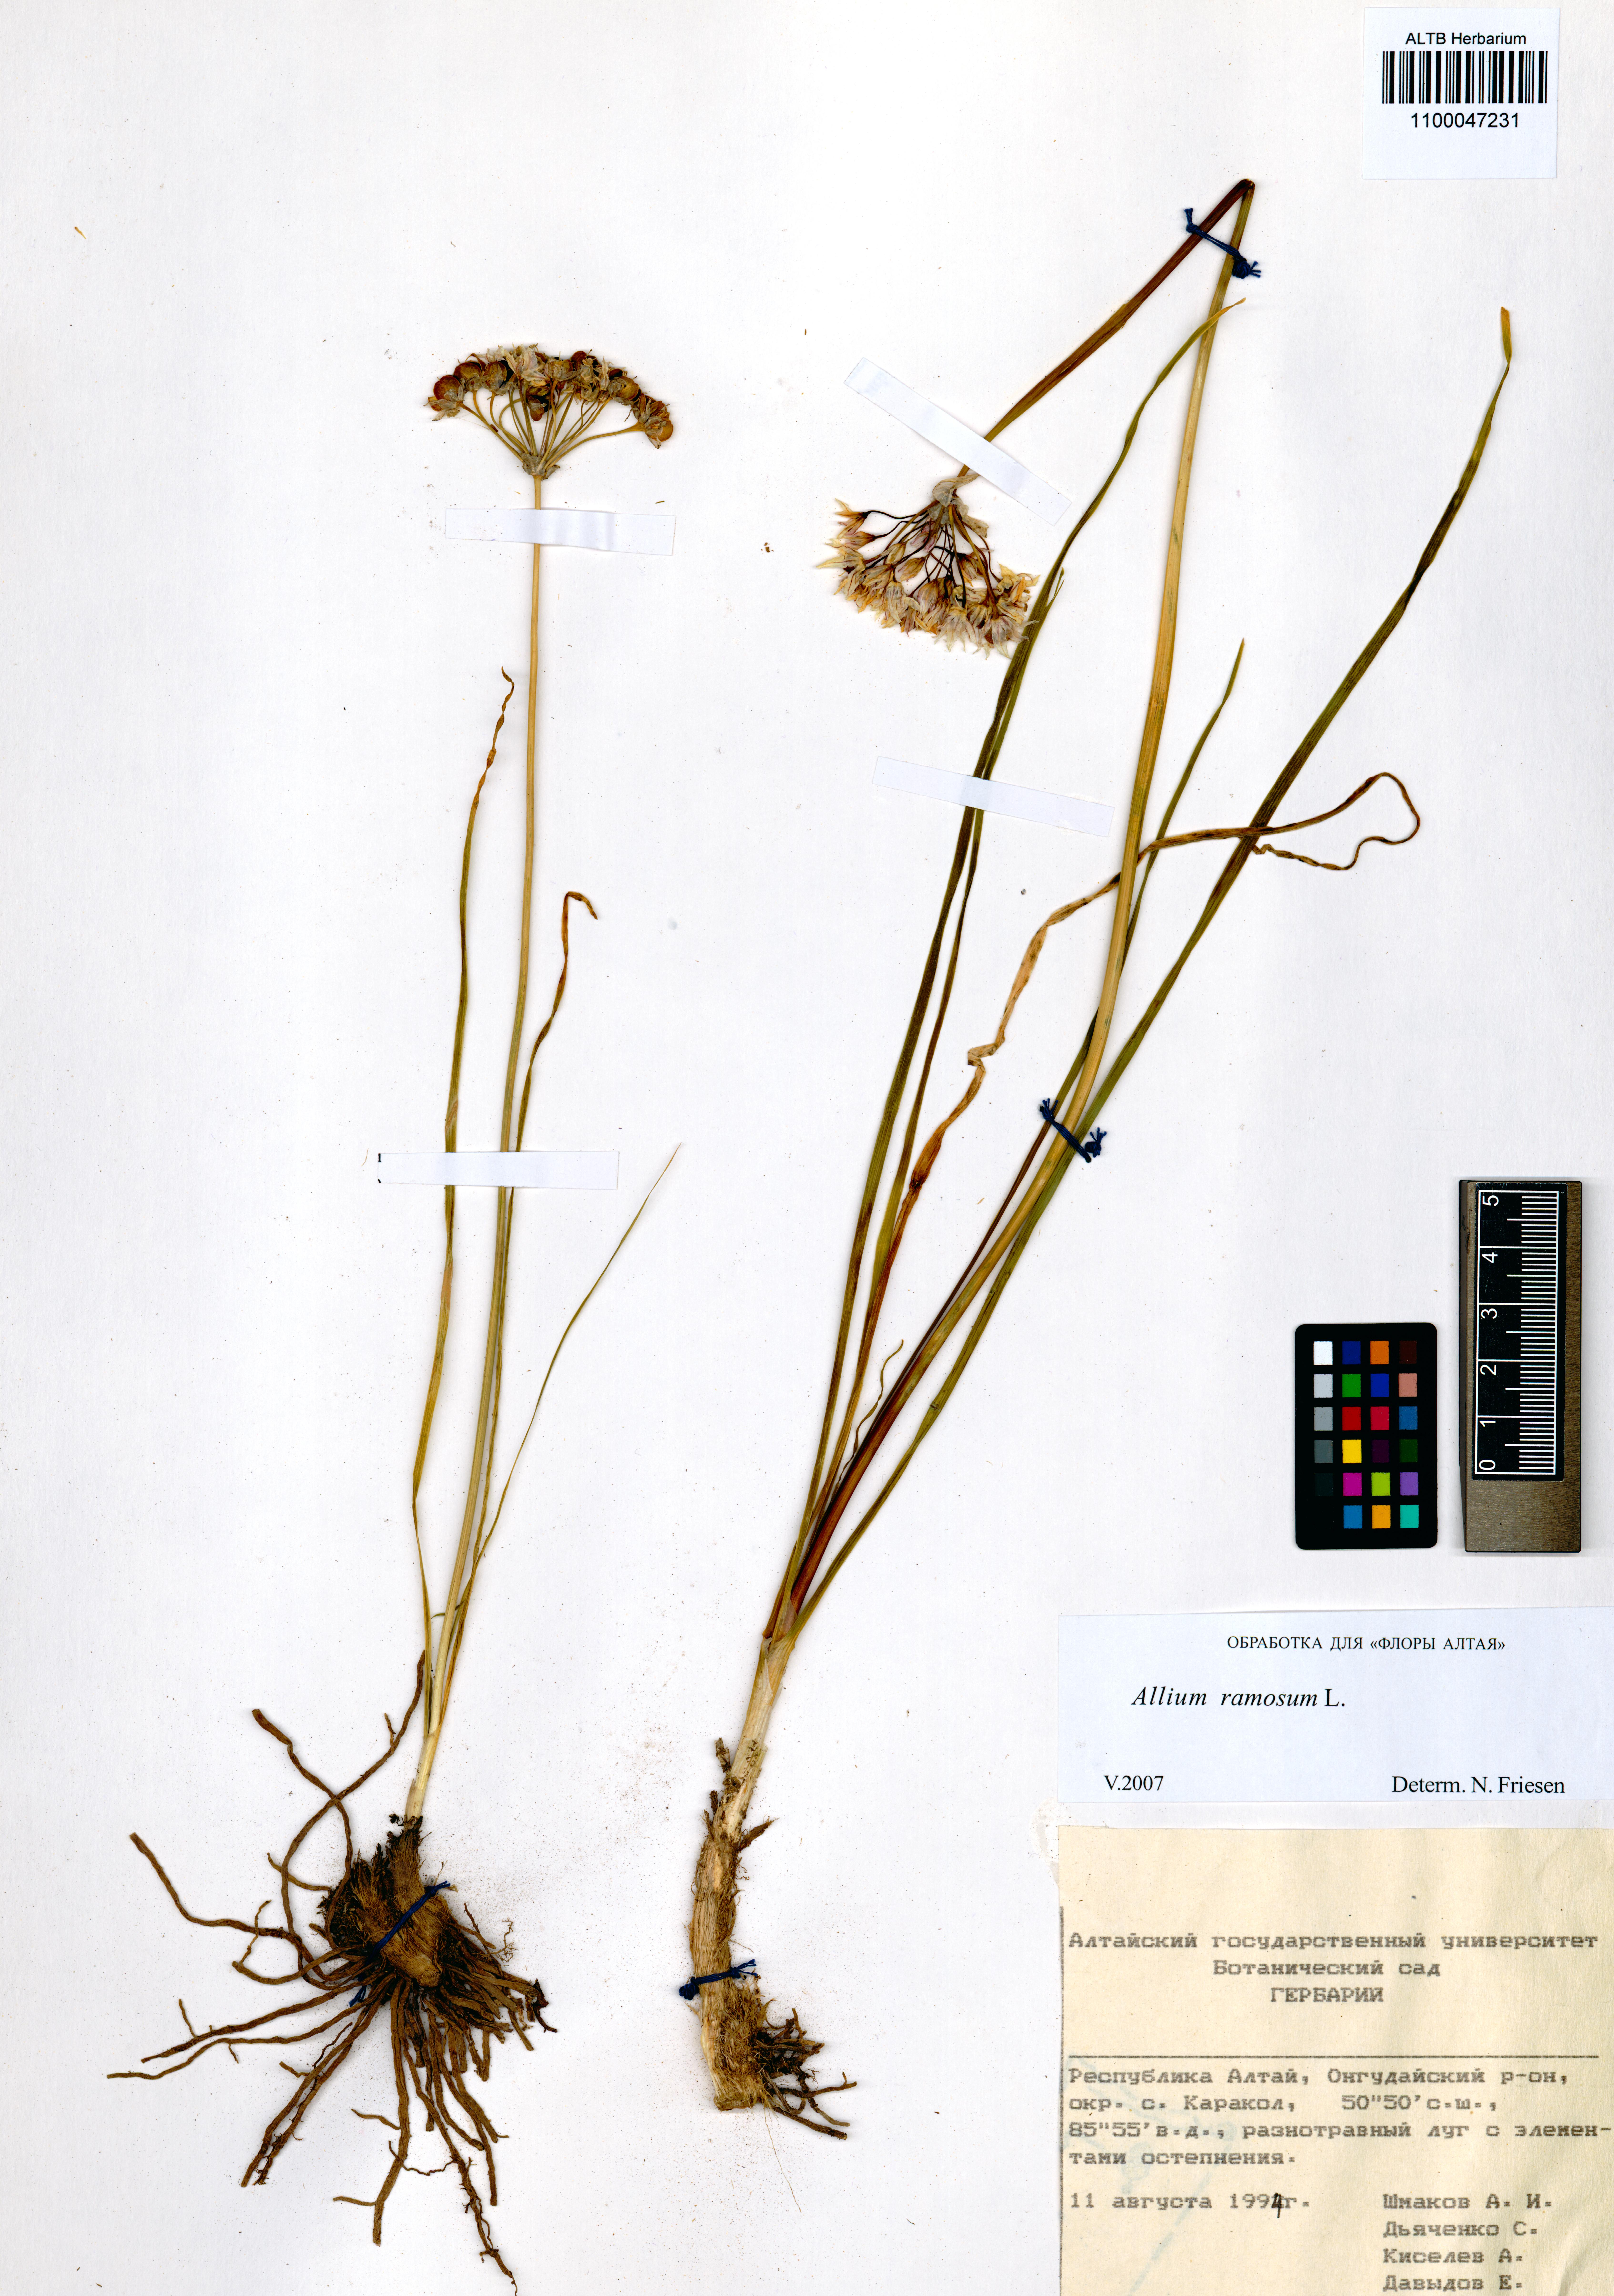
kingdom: Plantae
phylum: Tracheophyta
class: Liliopsida
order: Asparagales
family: Amaryllidaceae
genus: Allium
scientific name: Allium ramosum
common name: Fragrant garlic
